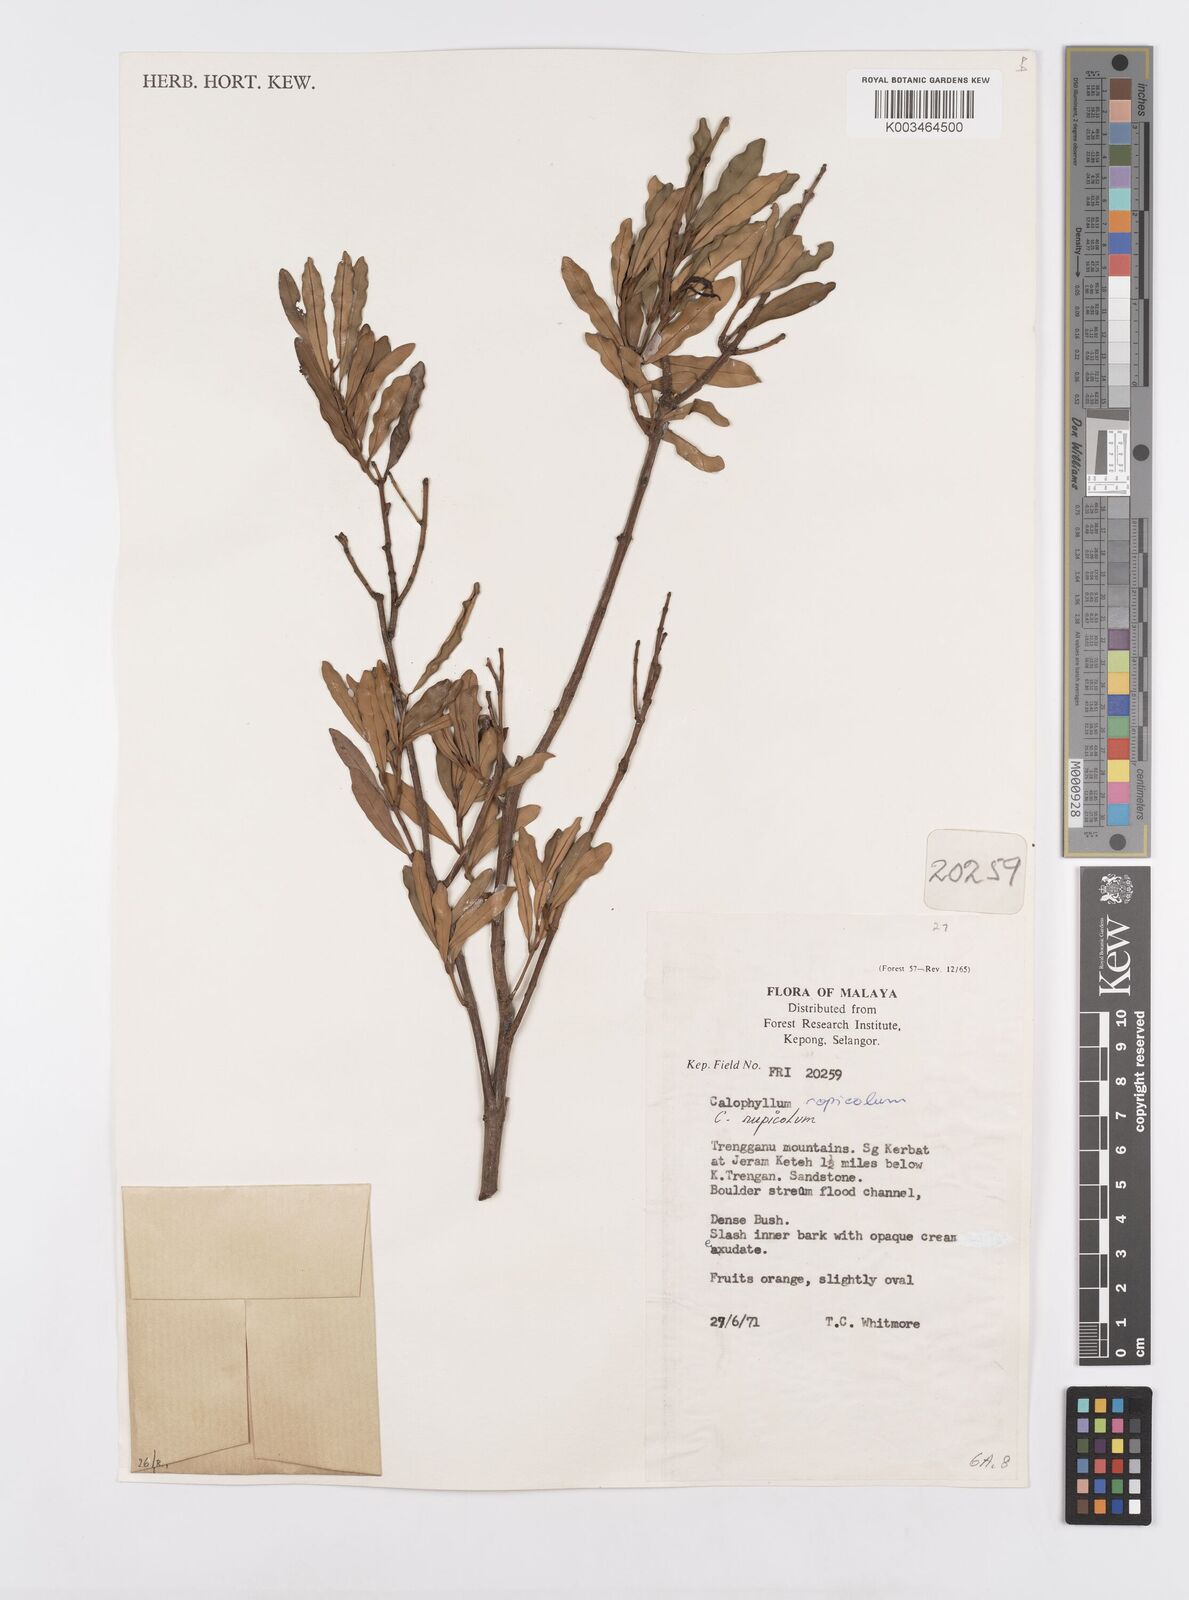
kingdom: Plantae
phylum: Tracheophyta
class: Magnoliopsida
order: Malpighiales
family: Calophyllaceae
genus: Calophyllum
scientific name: Calophyllum rupicola
